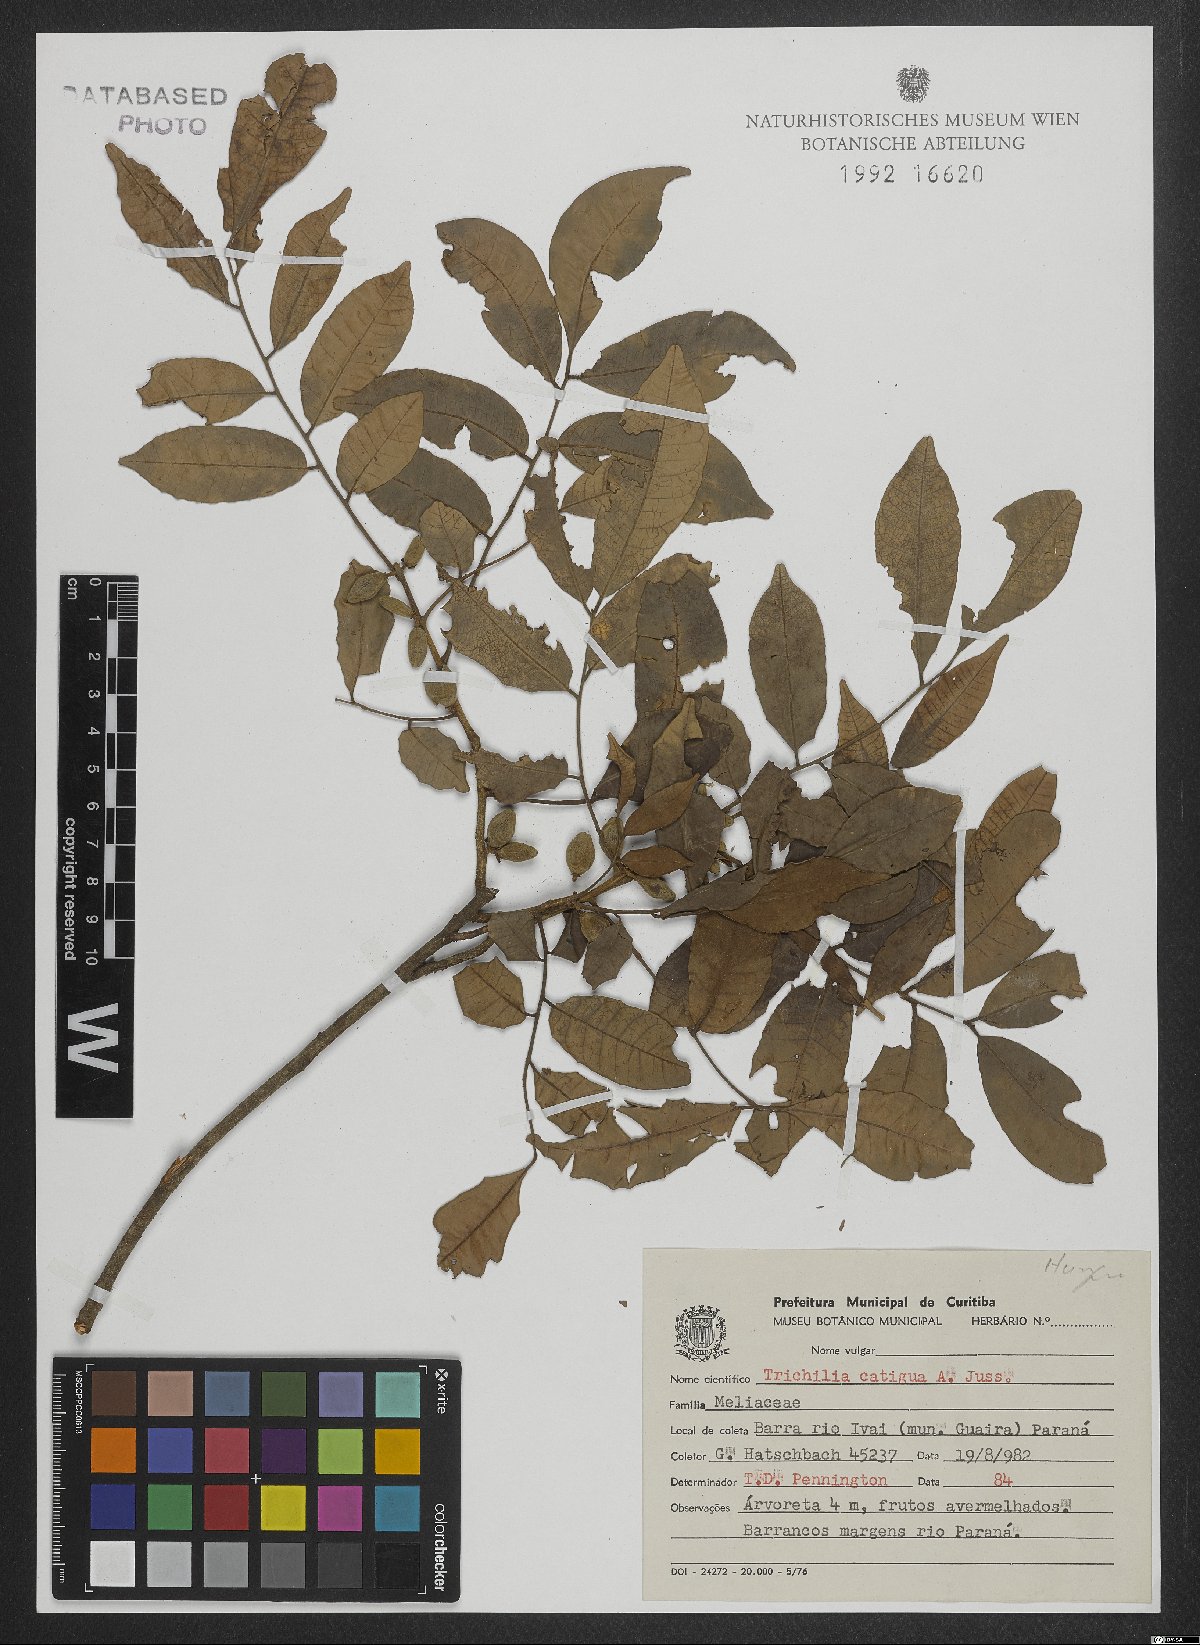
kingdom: Plantae
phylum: Tracheophyta
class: Magnoliopsida
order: Sapindales
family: Meliaceae
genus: Trichilia
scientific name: Trichilia catigua
